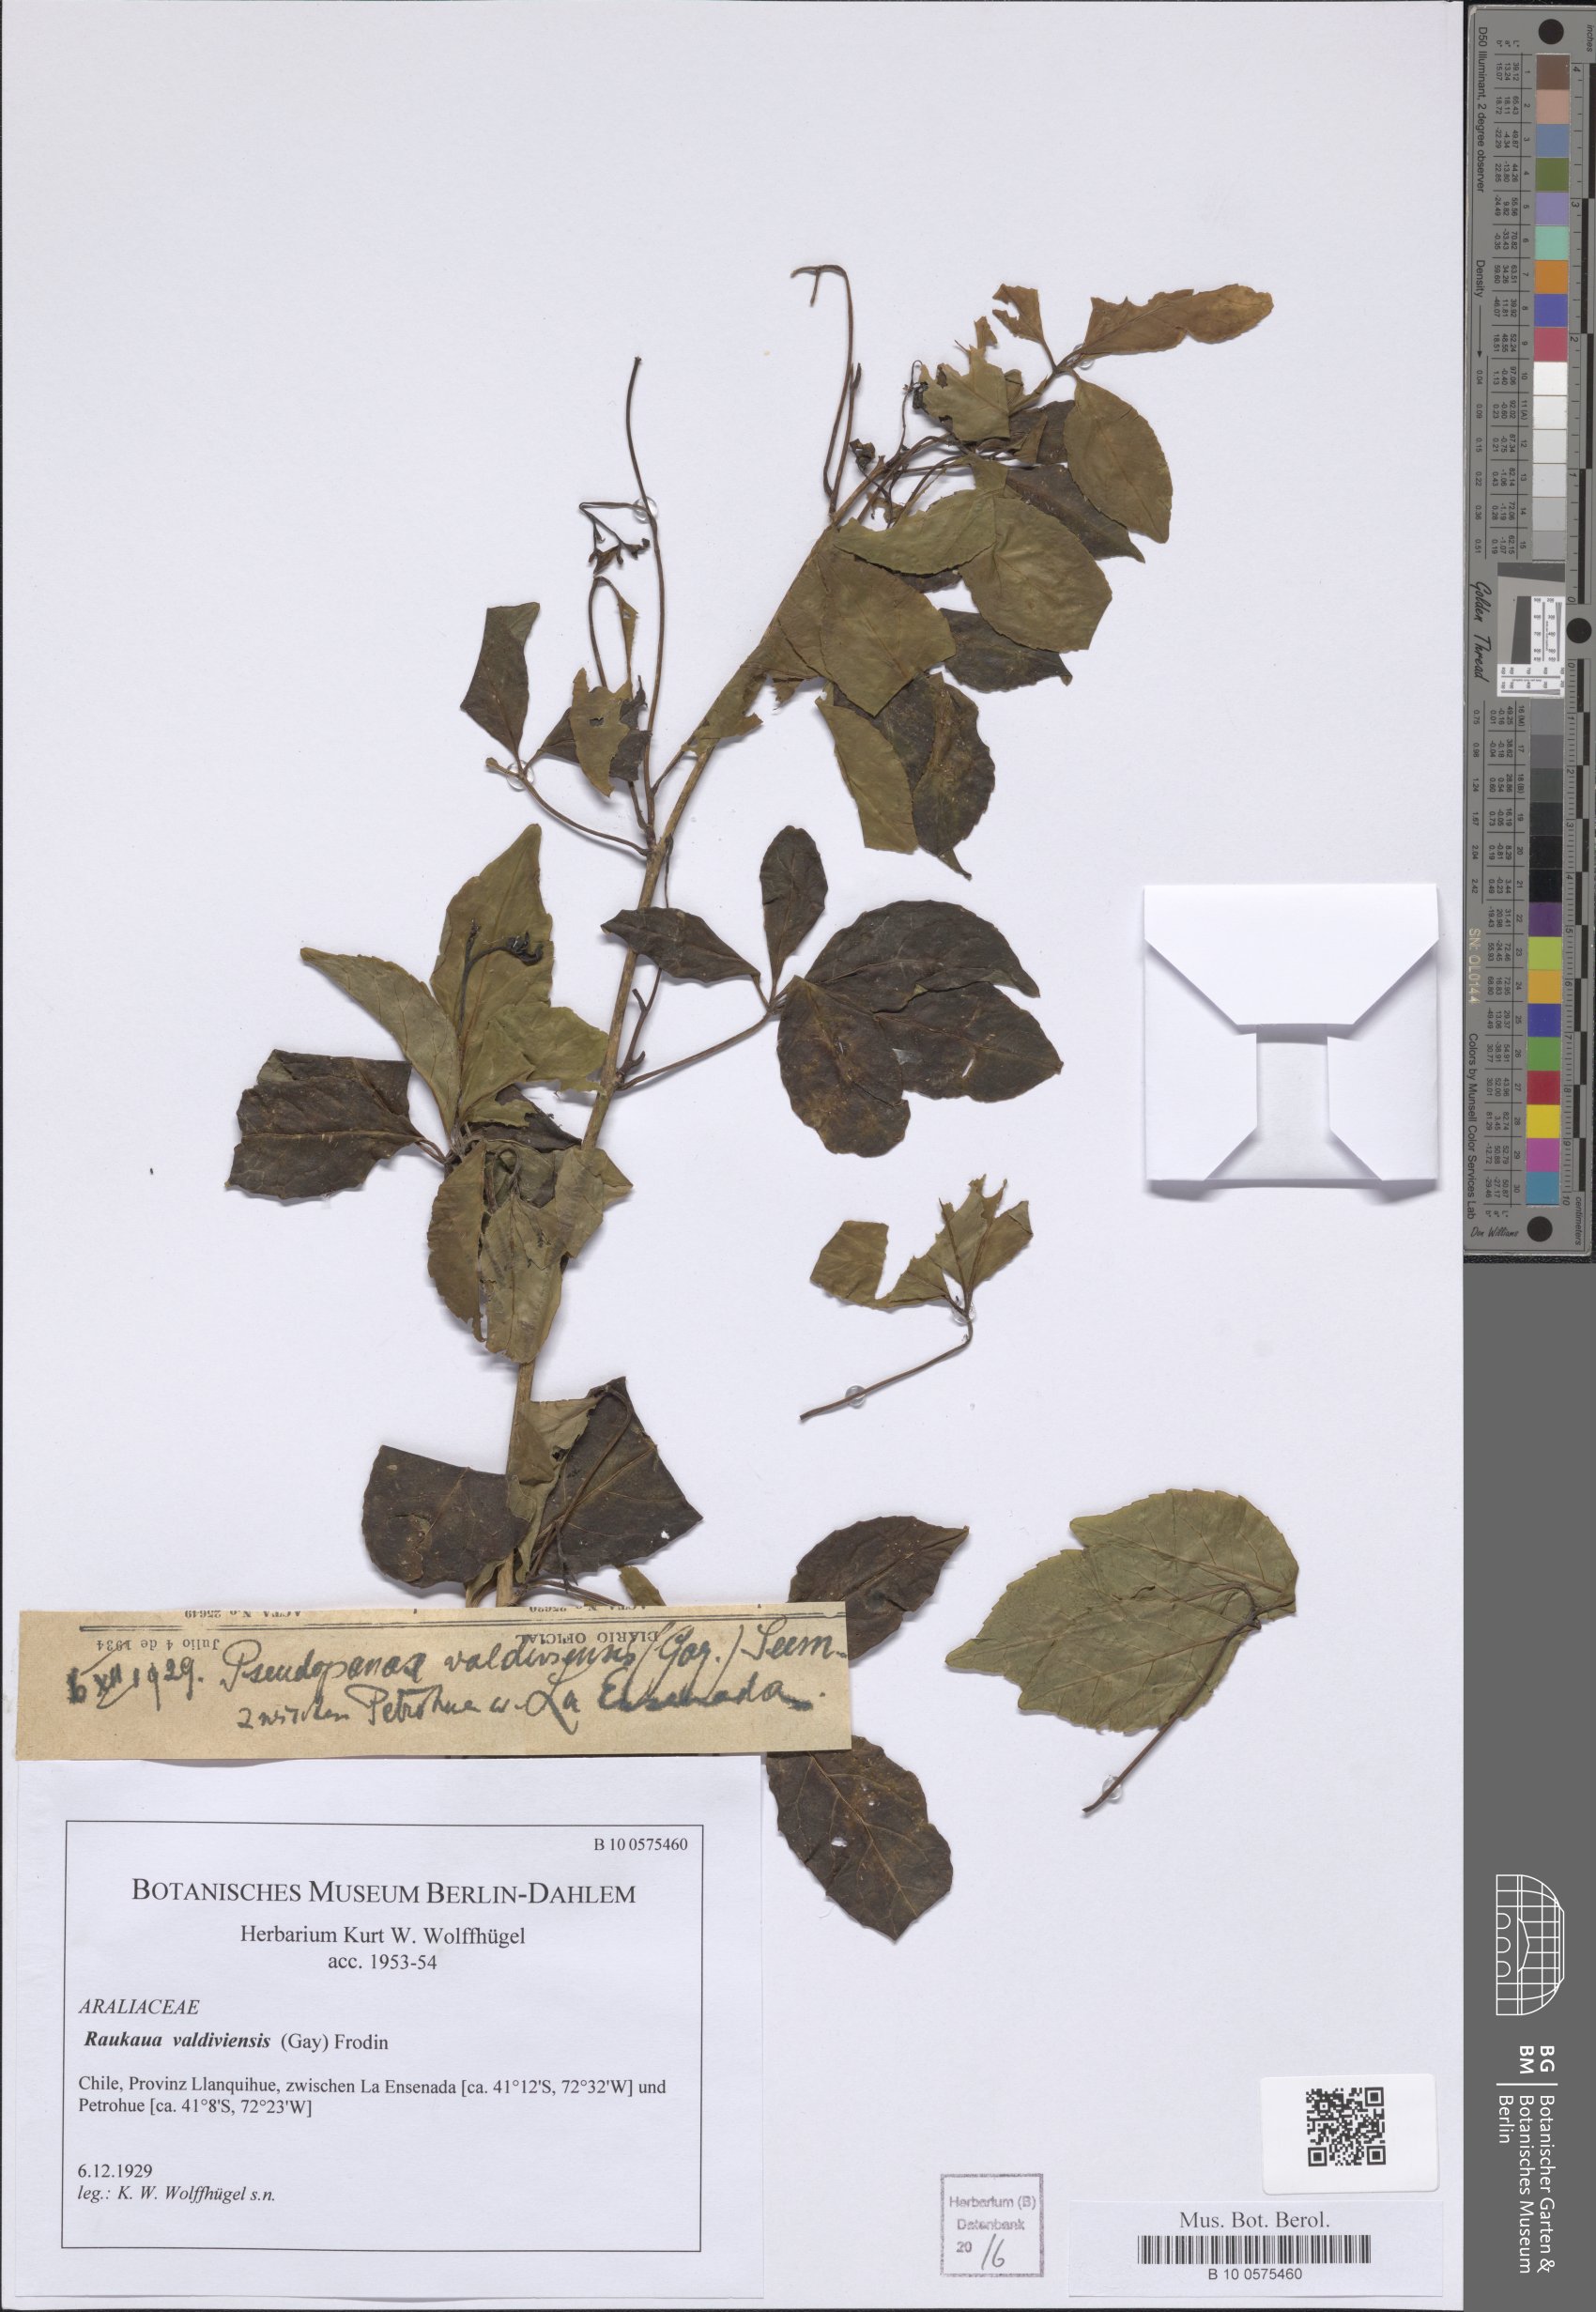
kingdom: Plantae
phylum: Tracheophyta
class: Magnoliopsida
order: Apiales
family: Araliaceae
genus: Raukaua
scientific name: Raukaua valdiviensis
